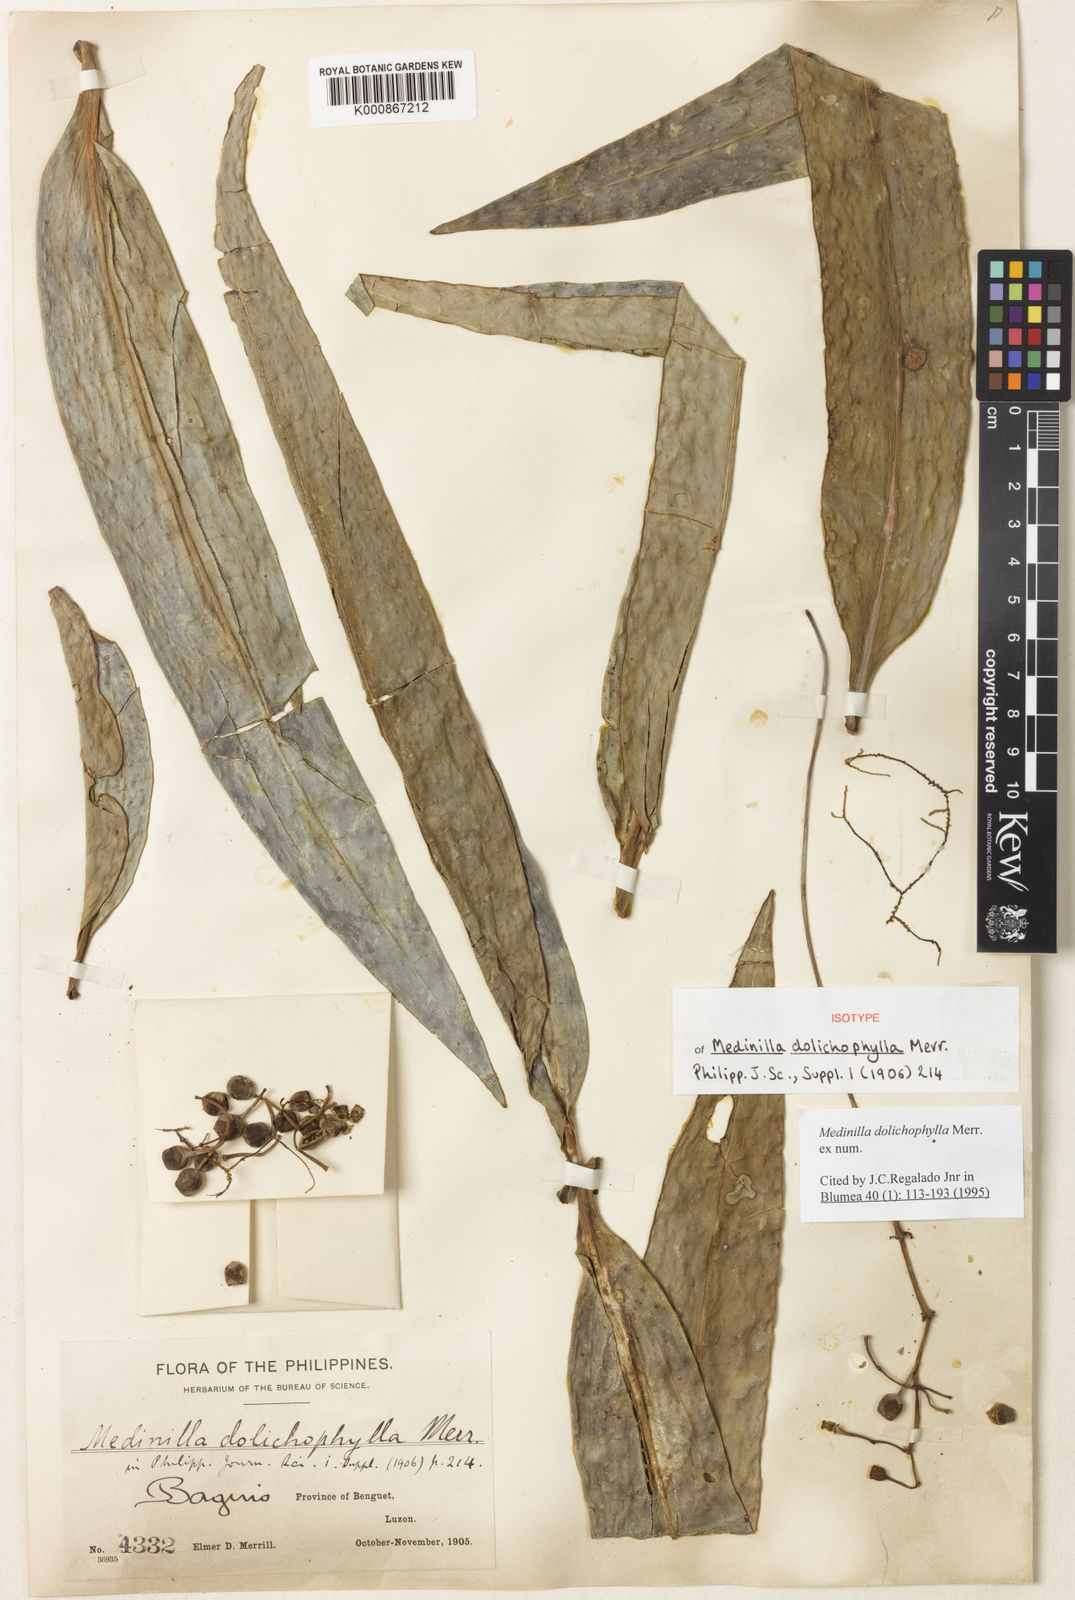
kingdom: Plantae
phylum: Tracheophyta
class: Magnoliopsida
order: Myrtales
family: Melastomataceae
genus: Medinilla
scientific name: Medinilla dolichophylla
